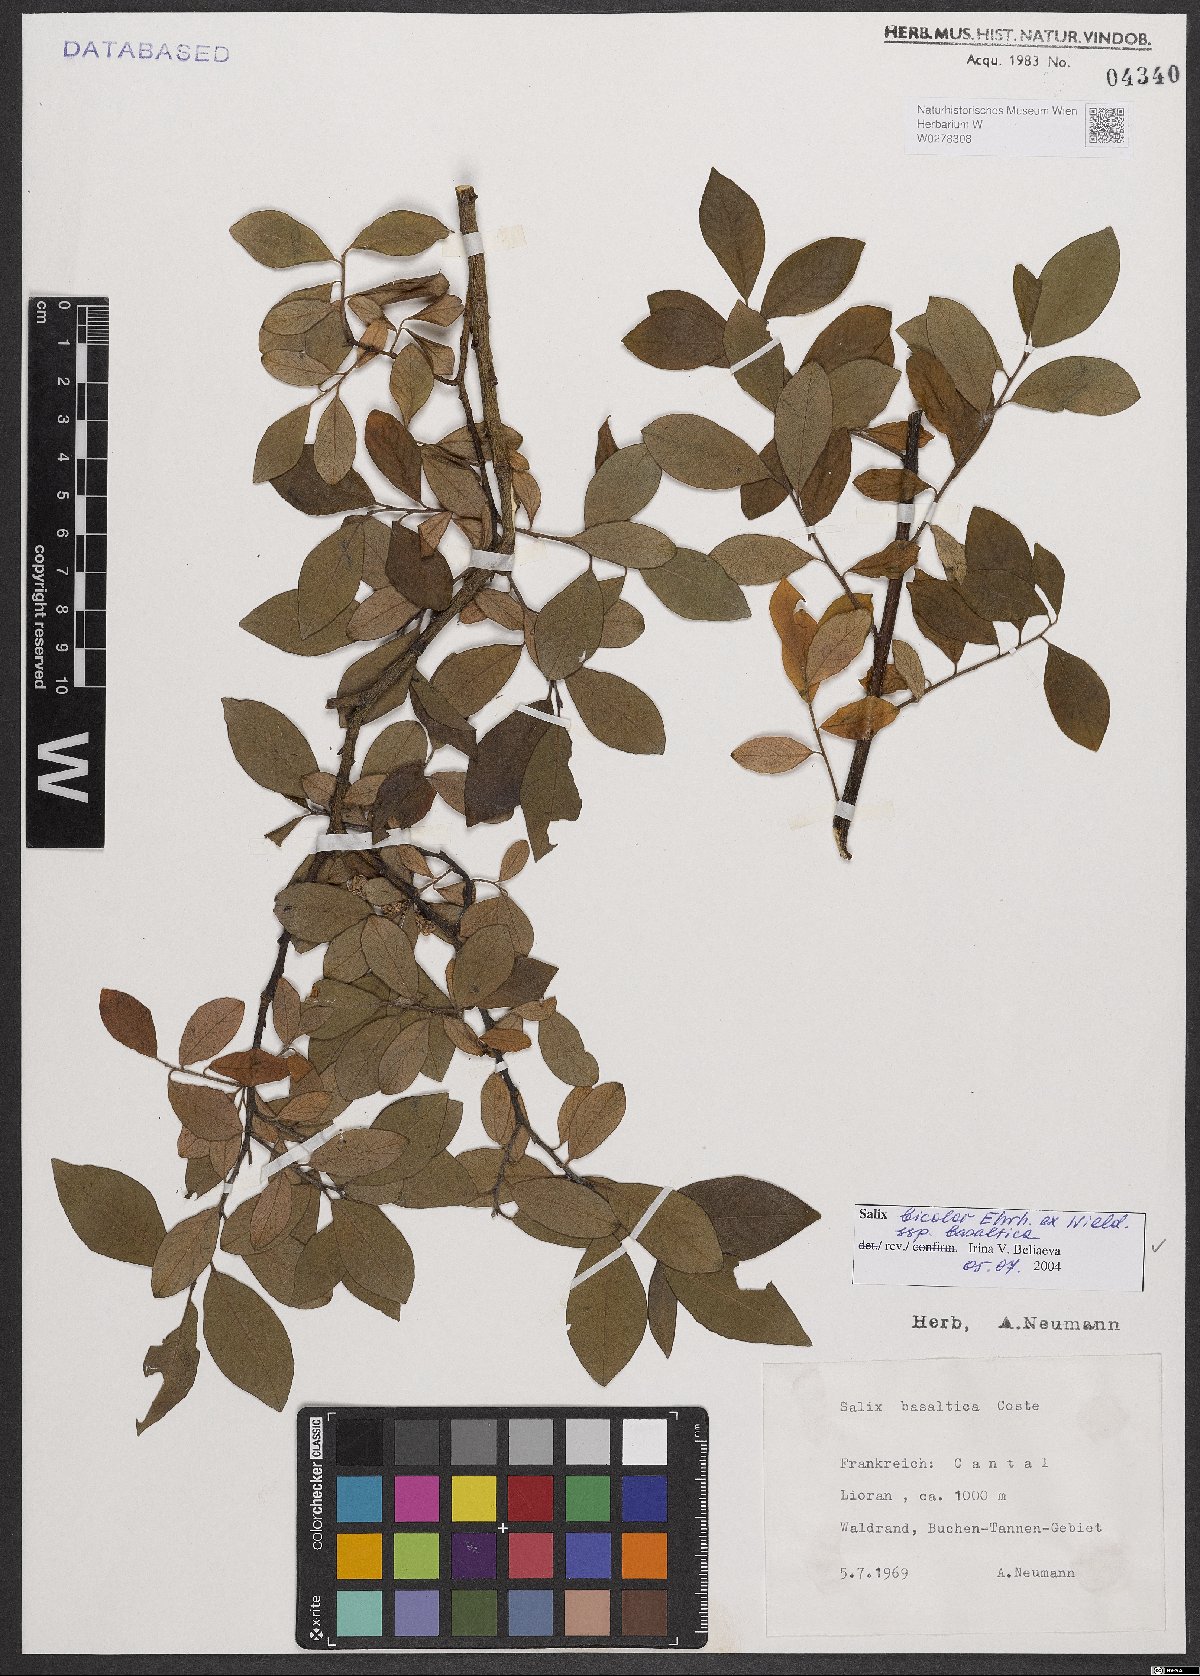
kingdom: Plantae
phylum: Tracheophyta
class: Magnoliopsida
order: Malpighiales
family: Salicaceae
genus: Salix
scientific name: Salix basaltica
